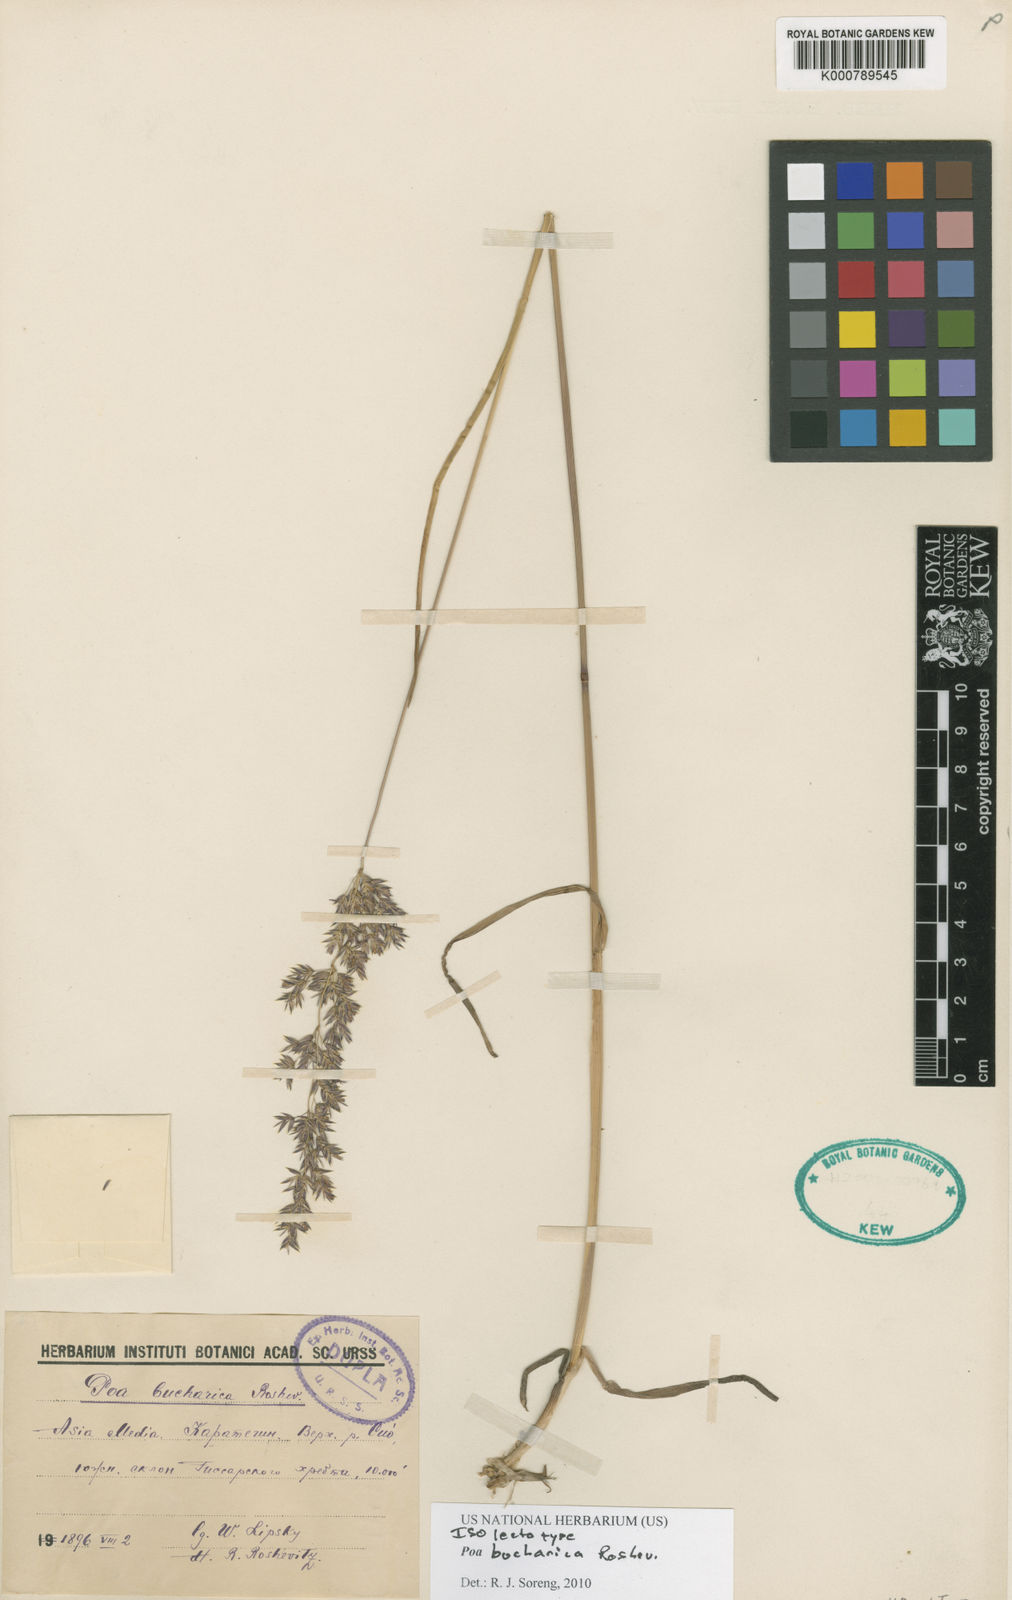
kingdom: Plantae
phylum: Tracheophyta
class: Liliopsida
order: Poales
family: Poaceae
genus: Poa
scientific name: Poa bucharica
